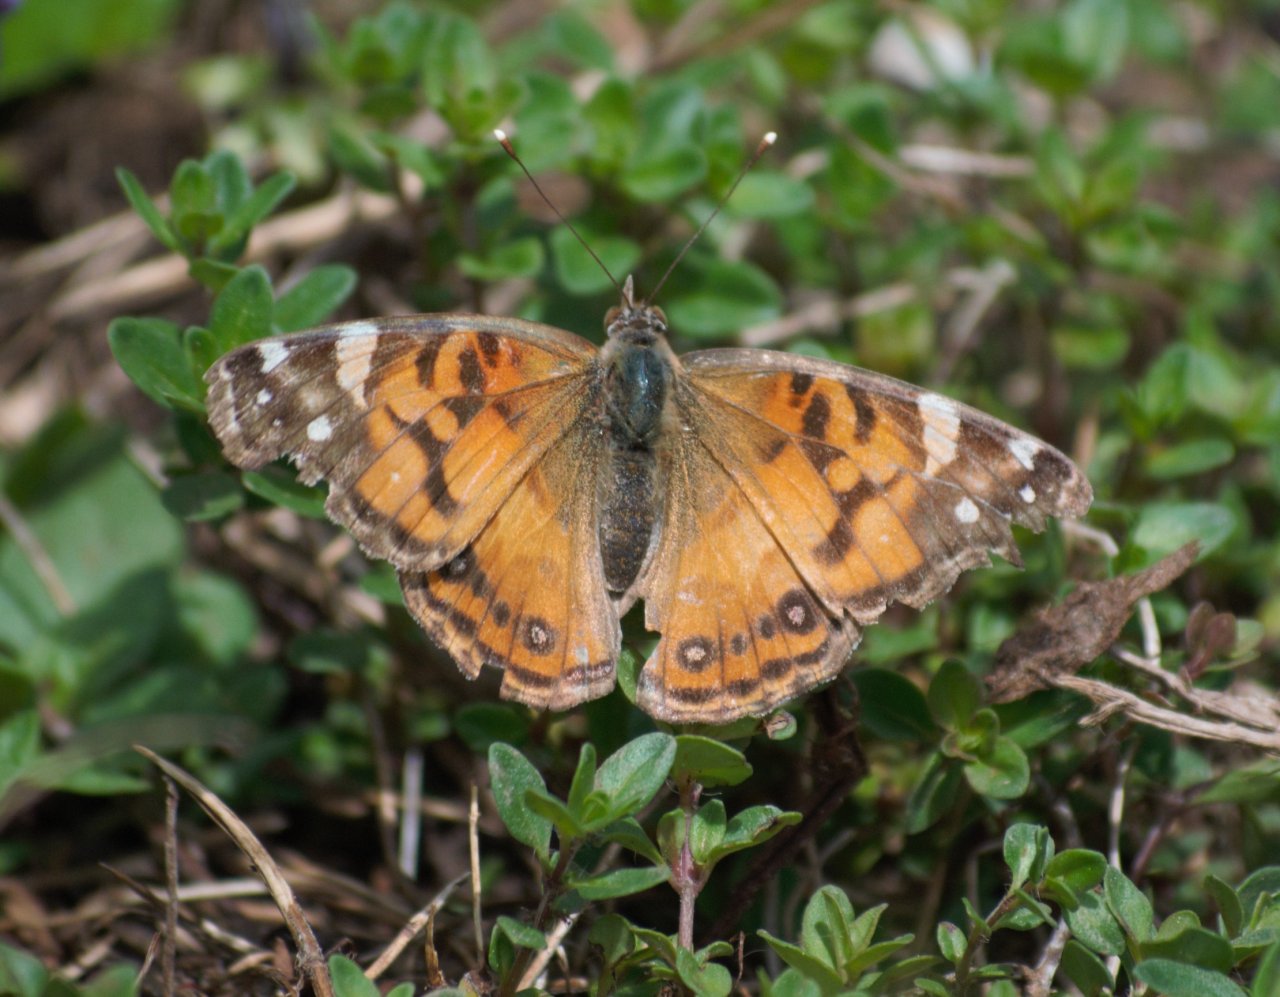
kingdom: Animalia
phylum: Arthropoda
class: Insecta
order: Lepidoptera
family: Nymphalidae
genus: Vanessa
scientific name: Vanessa virginiensis
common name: American Lady
